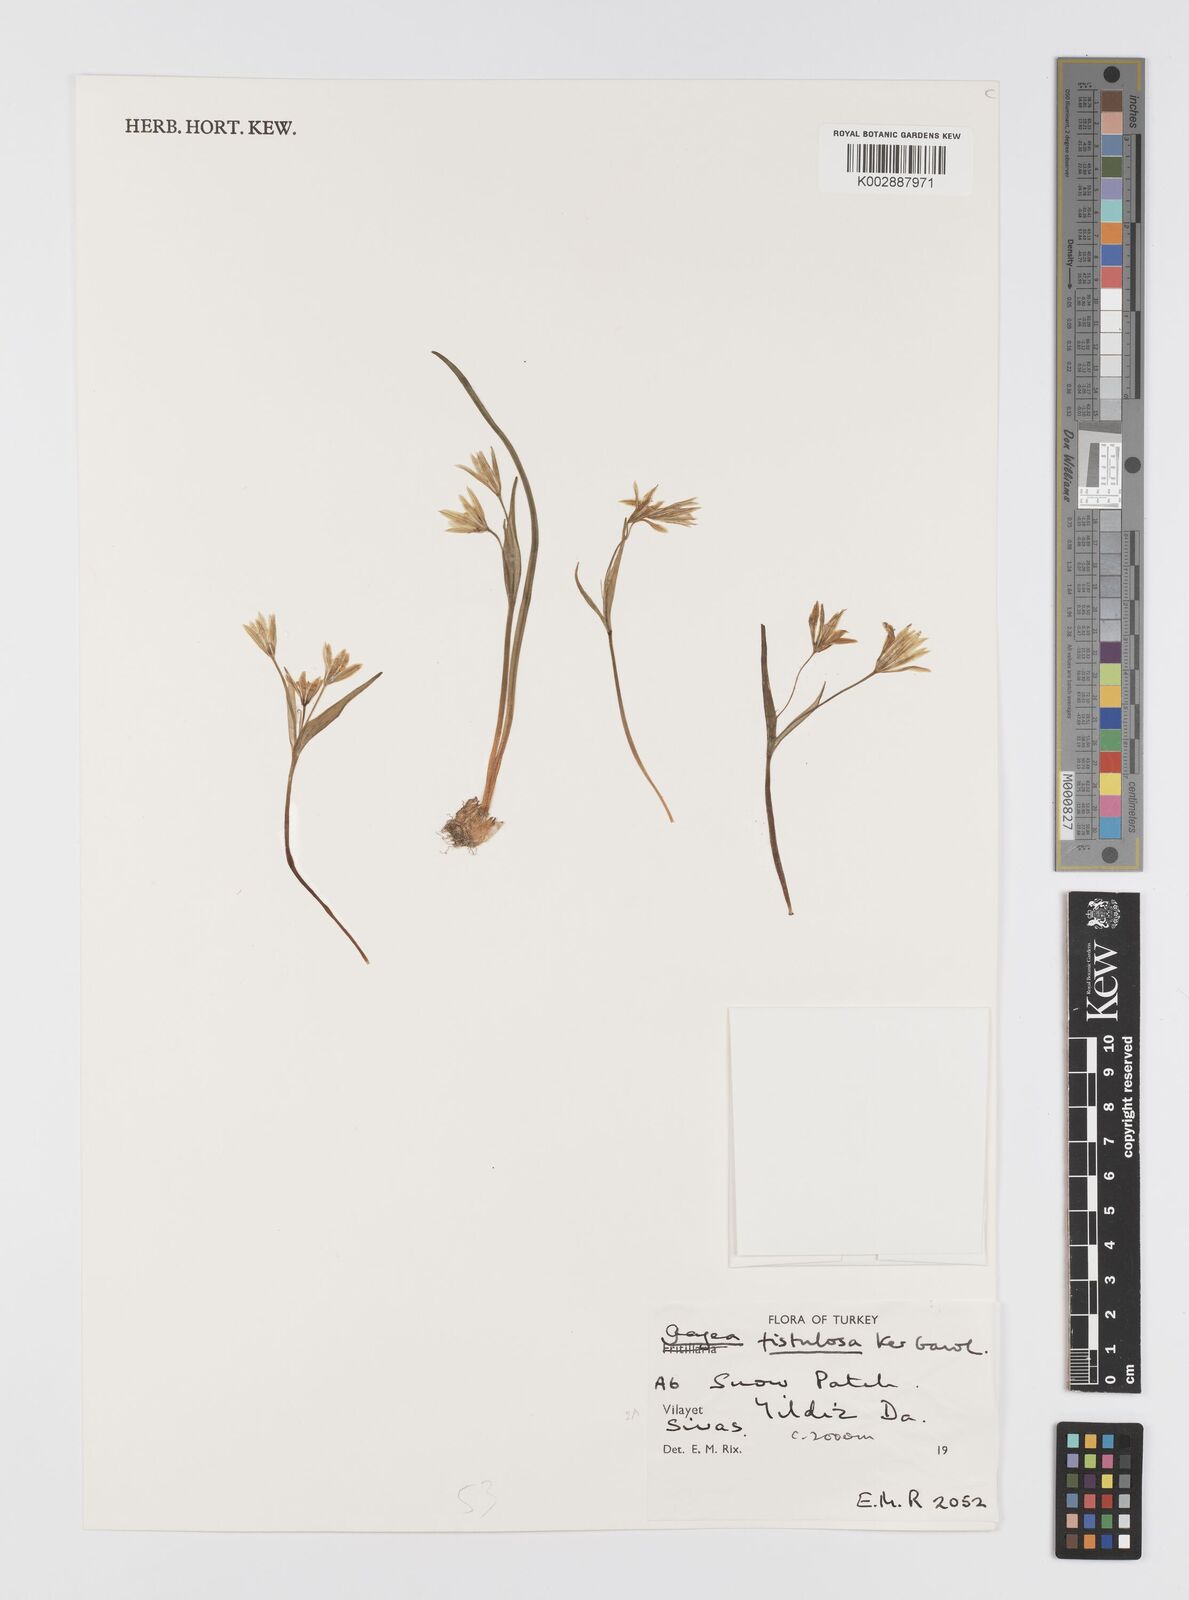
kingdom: Plantae
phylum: Tracheophyta
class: Liliopsida
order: Liliales
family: Liliaceae
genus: Gagea
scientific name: Gagea bohemica
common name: Early star-of-bethlehem
